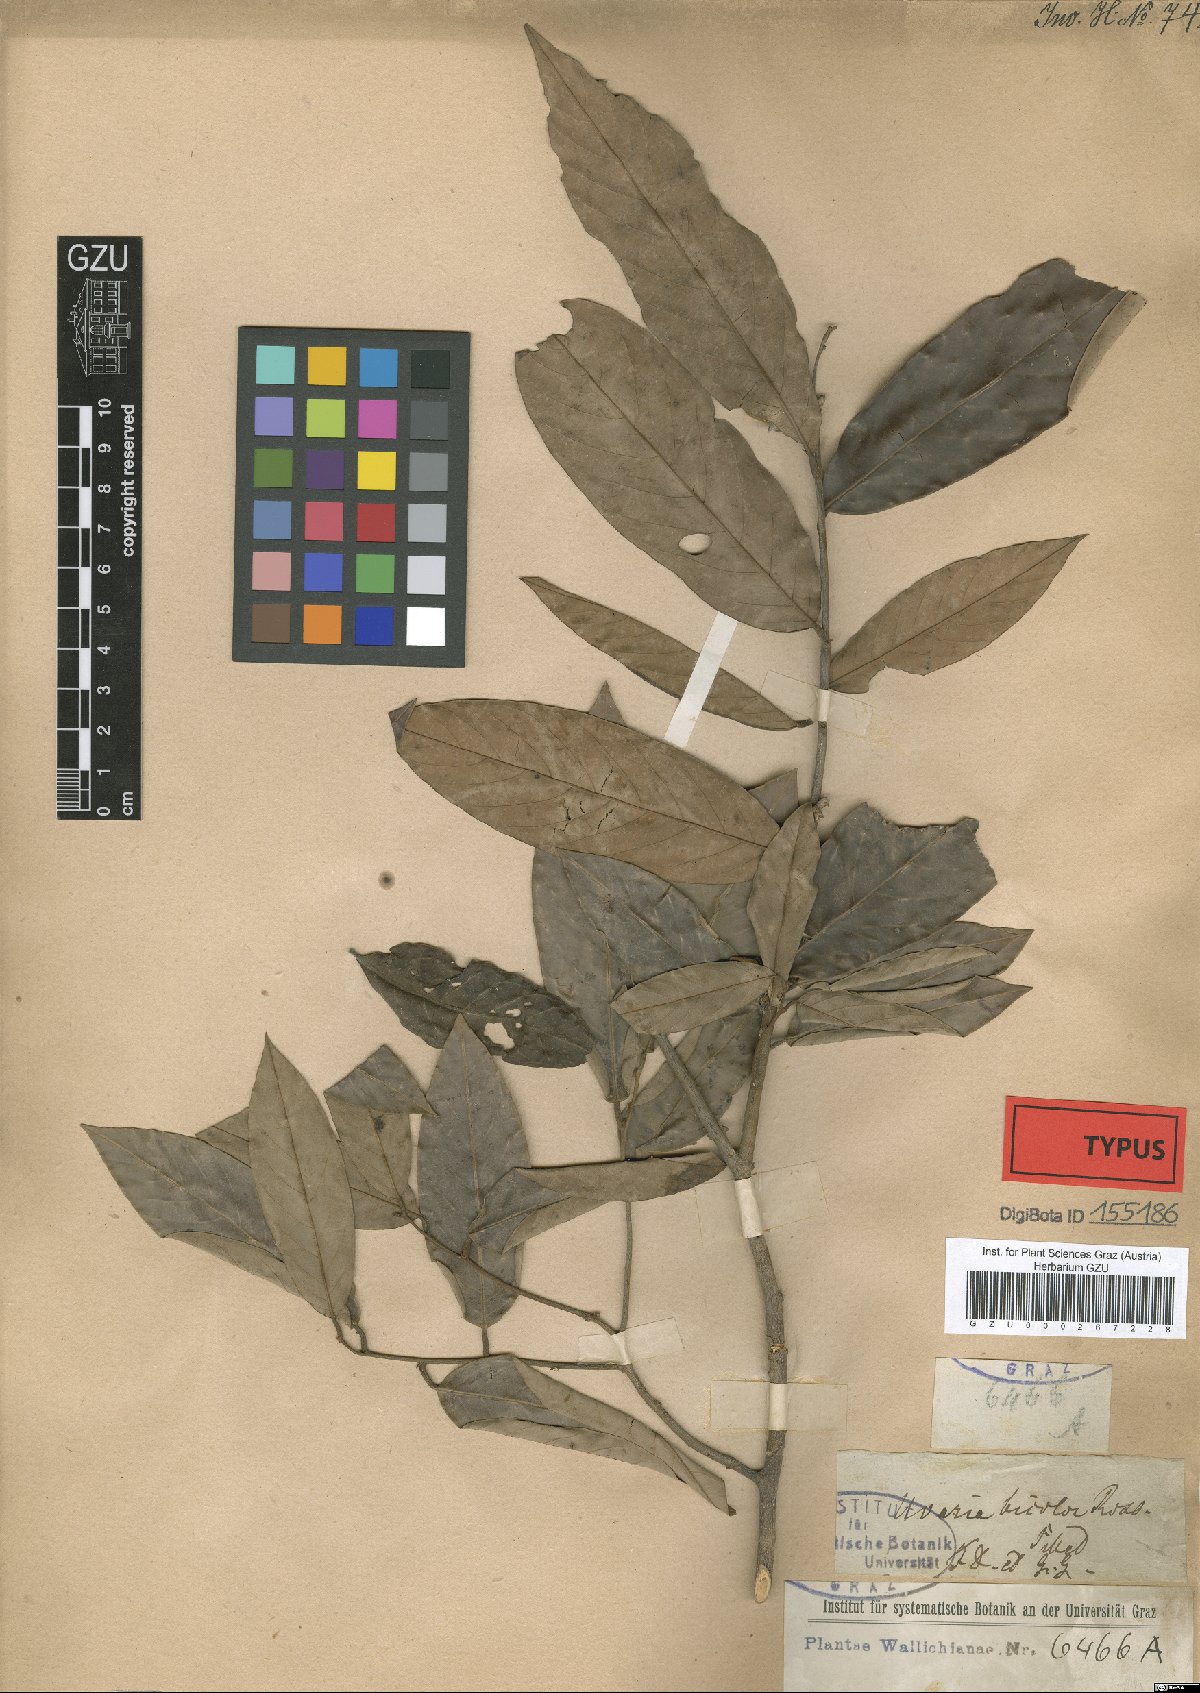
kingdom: Plantae
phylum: Tracheophyta
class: Magnoliopsida
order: Magnoliales
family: Annonaceae
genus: Fissistigma
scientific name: Fissistigma bicolor
